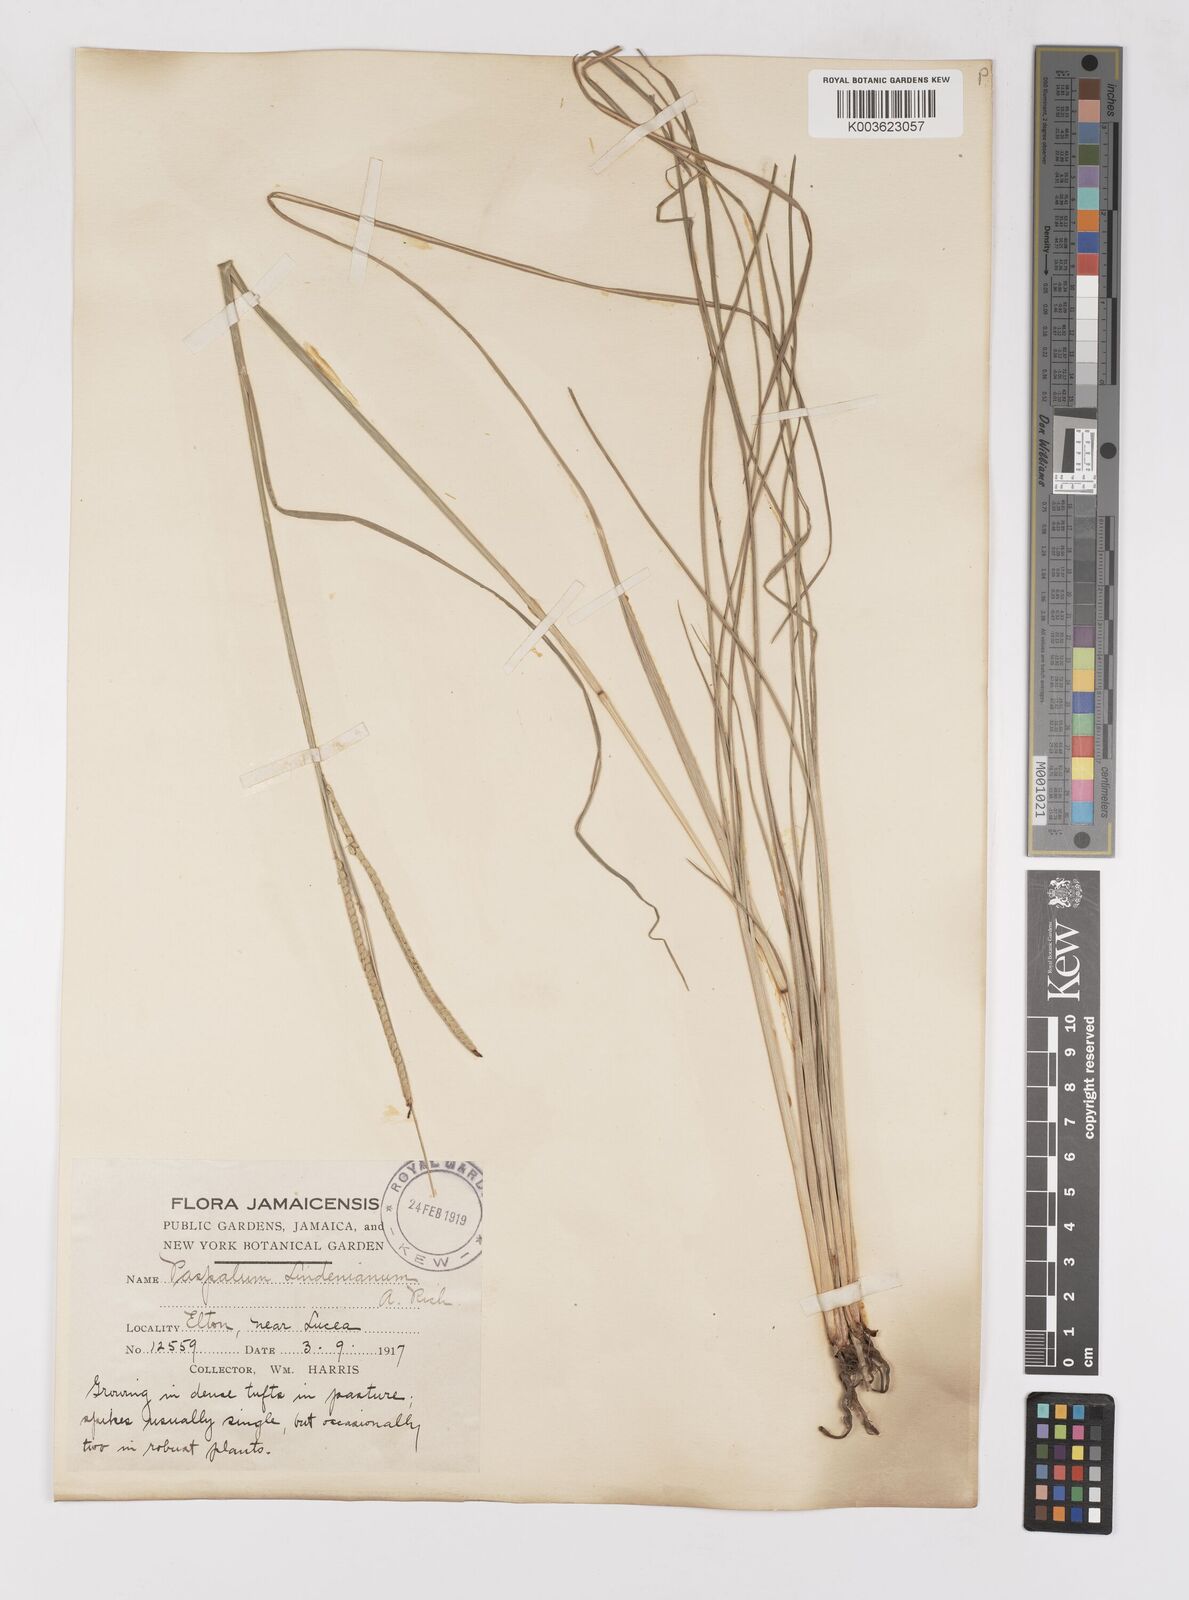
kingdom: Plantae
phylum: Tracheophyta
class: Liliopsida
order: Poales
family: Poaceae
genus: Paspalum
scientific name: Paspalum lindenianum
